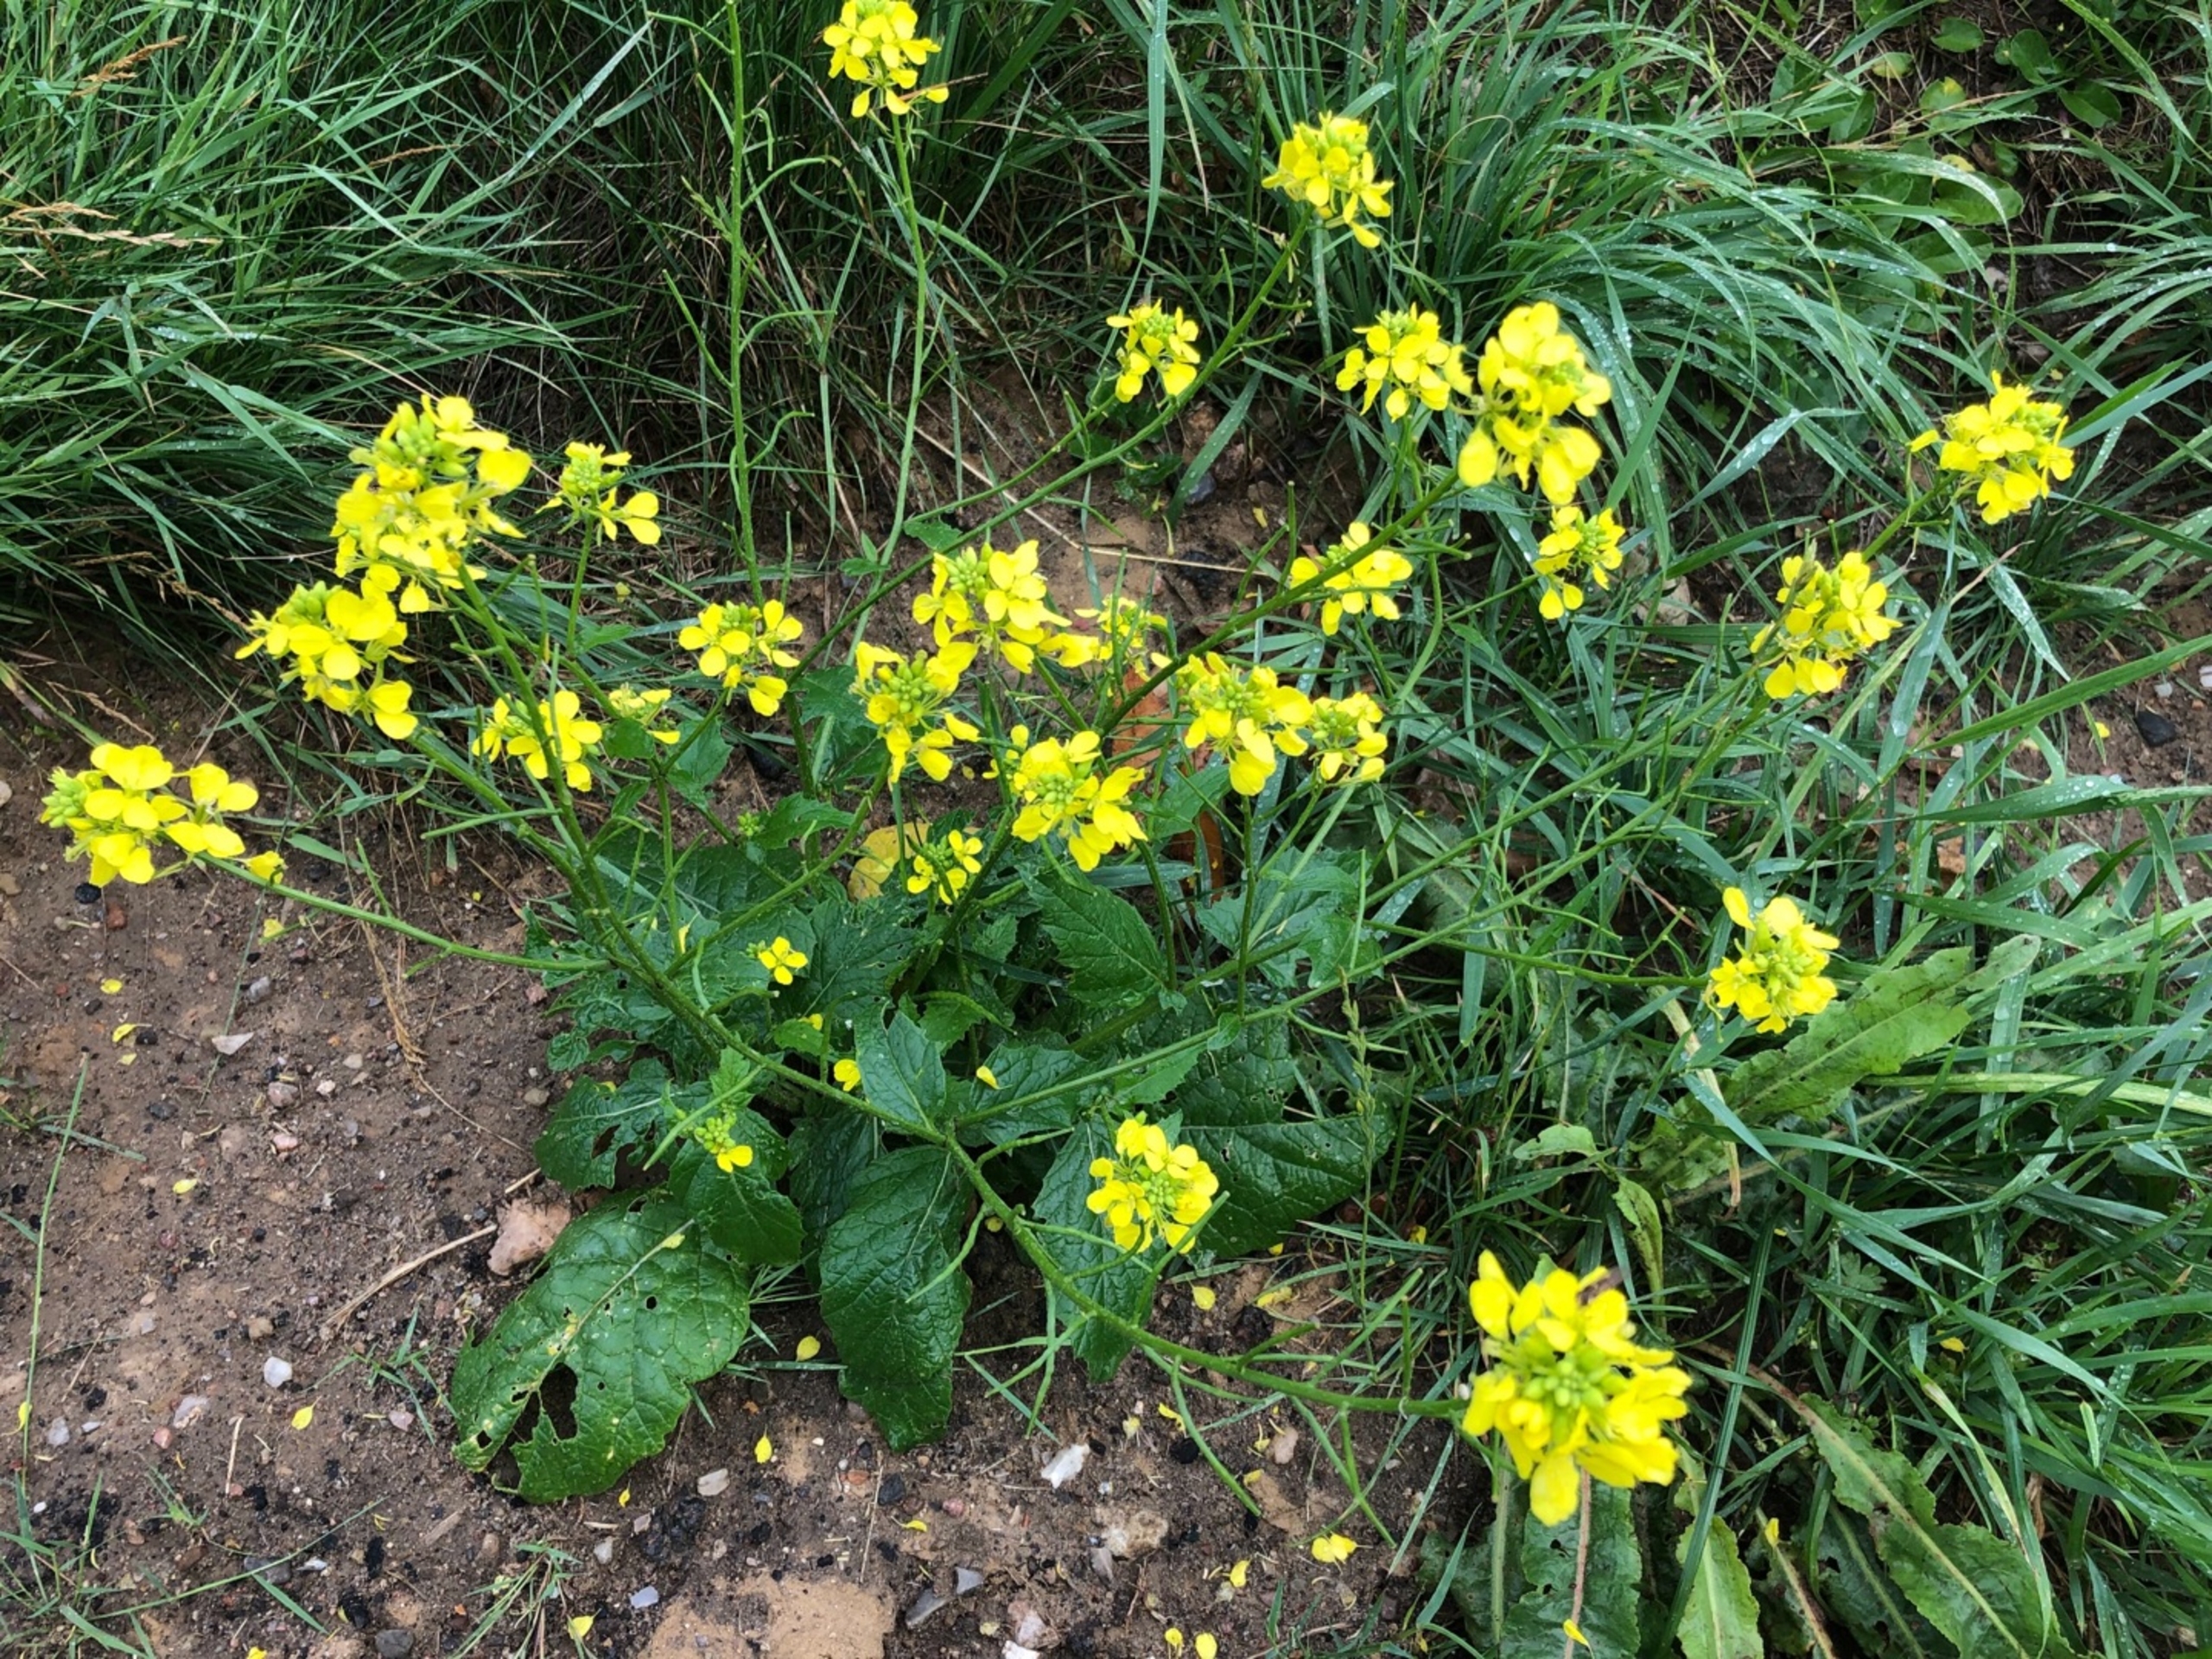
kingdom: Plantae
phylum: Tracheophyta
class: Magnoliopsida
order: Brassicales
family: Brassicaceae
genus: Sinapis
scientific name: Sinapis arvensis
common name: Ager-sennep
